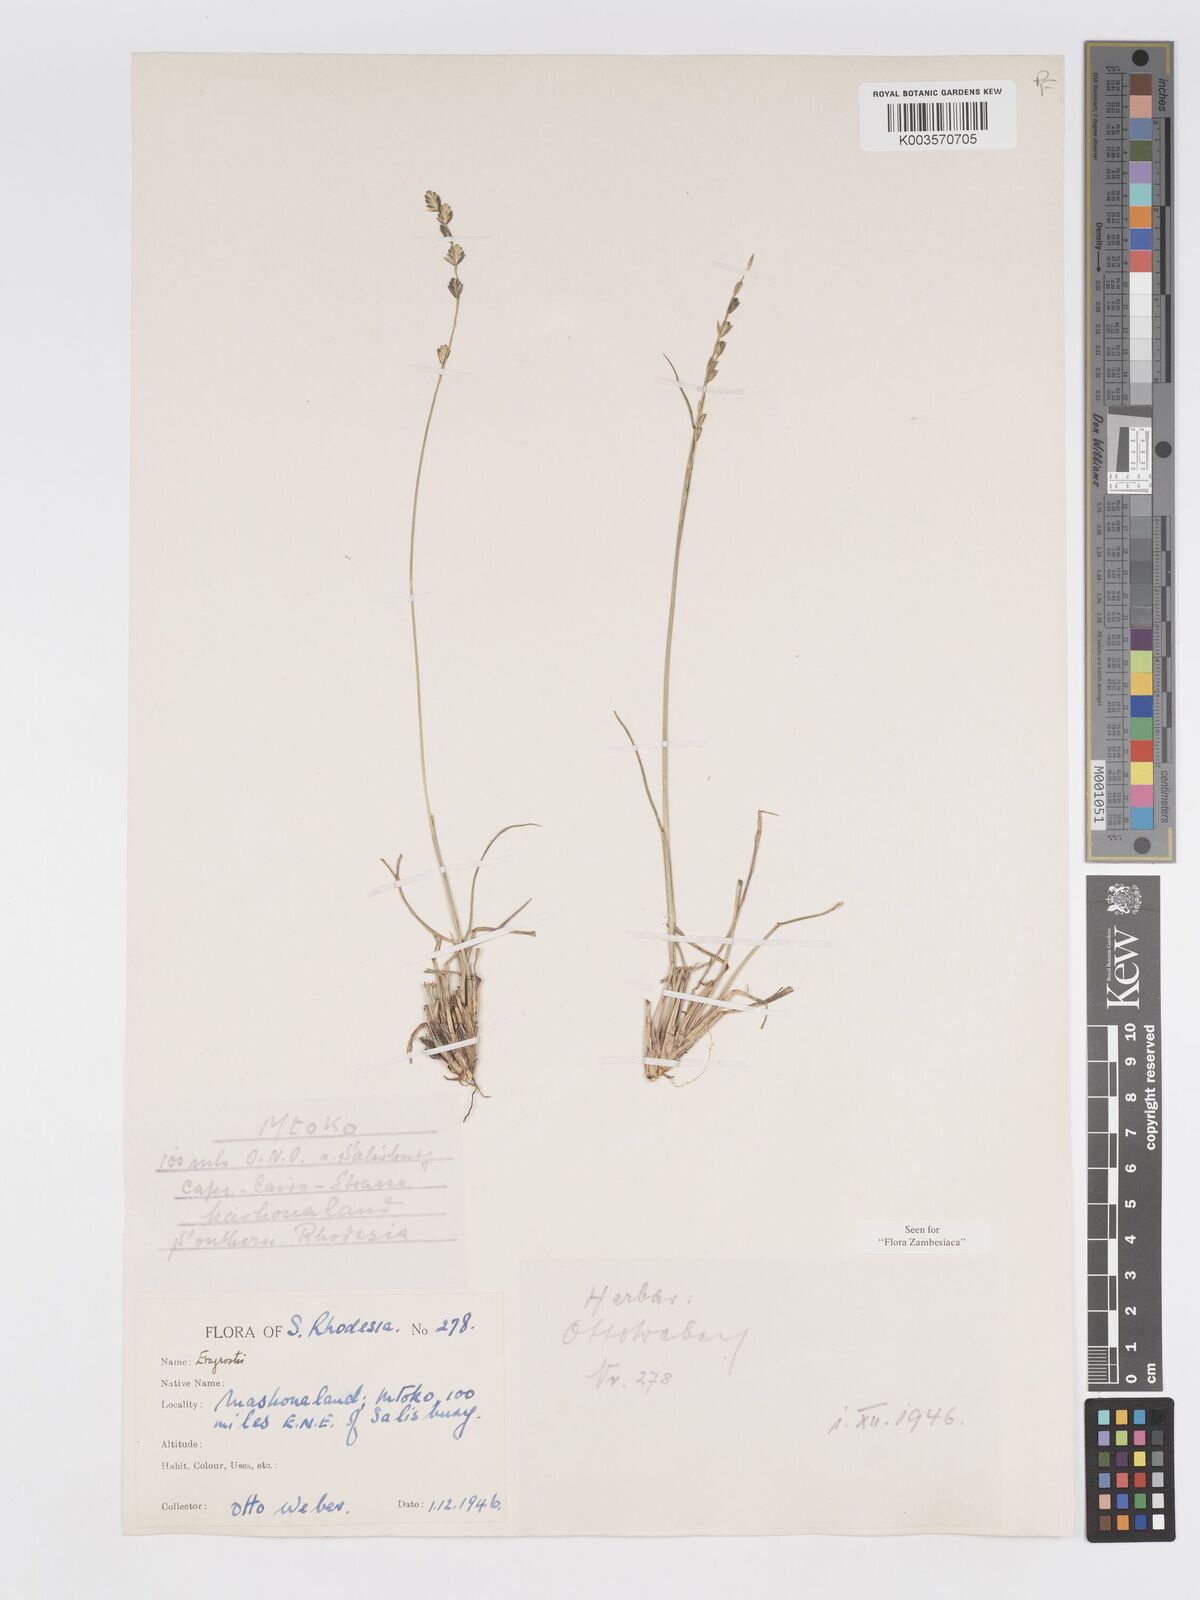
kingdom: Plantae
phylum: Tracheophyta
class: Liliopsida
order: Poales
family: Poaceae
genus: Eragrostis
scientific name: Eragrostis capensis
